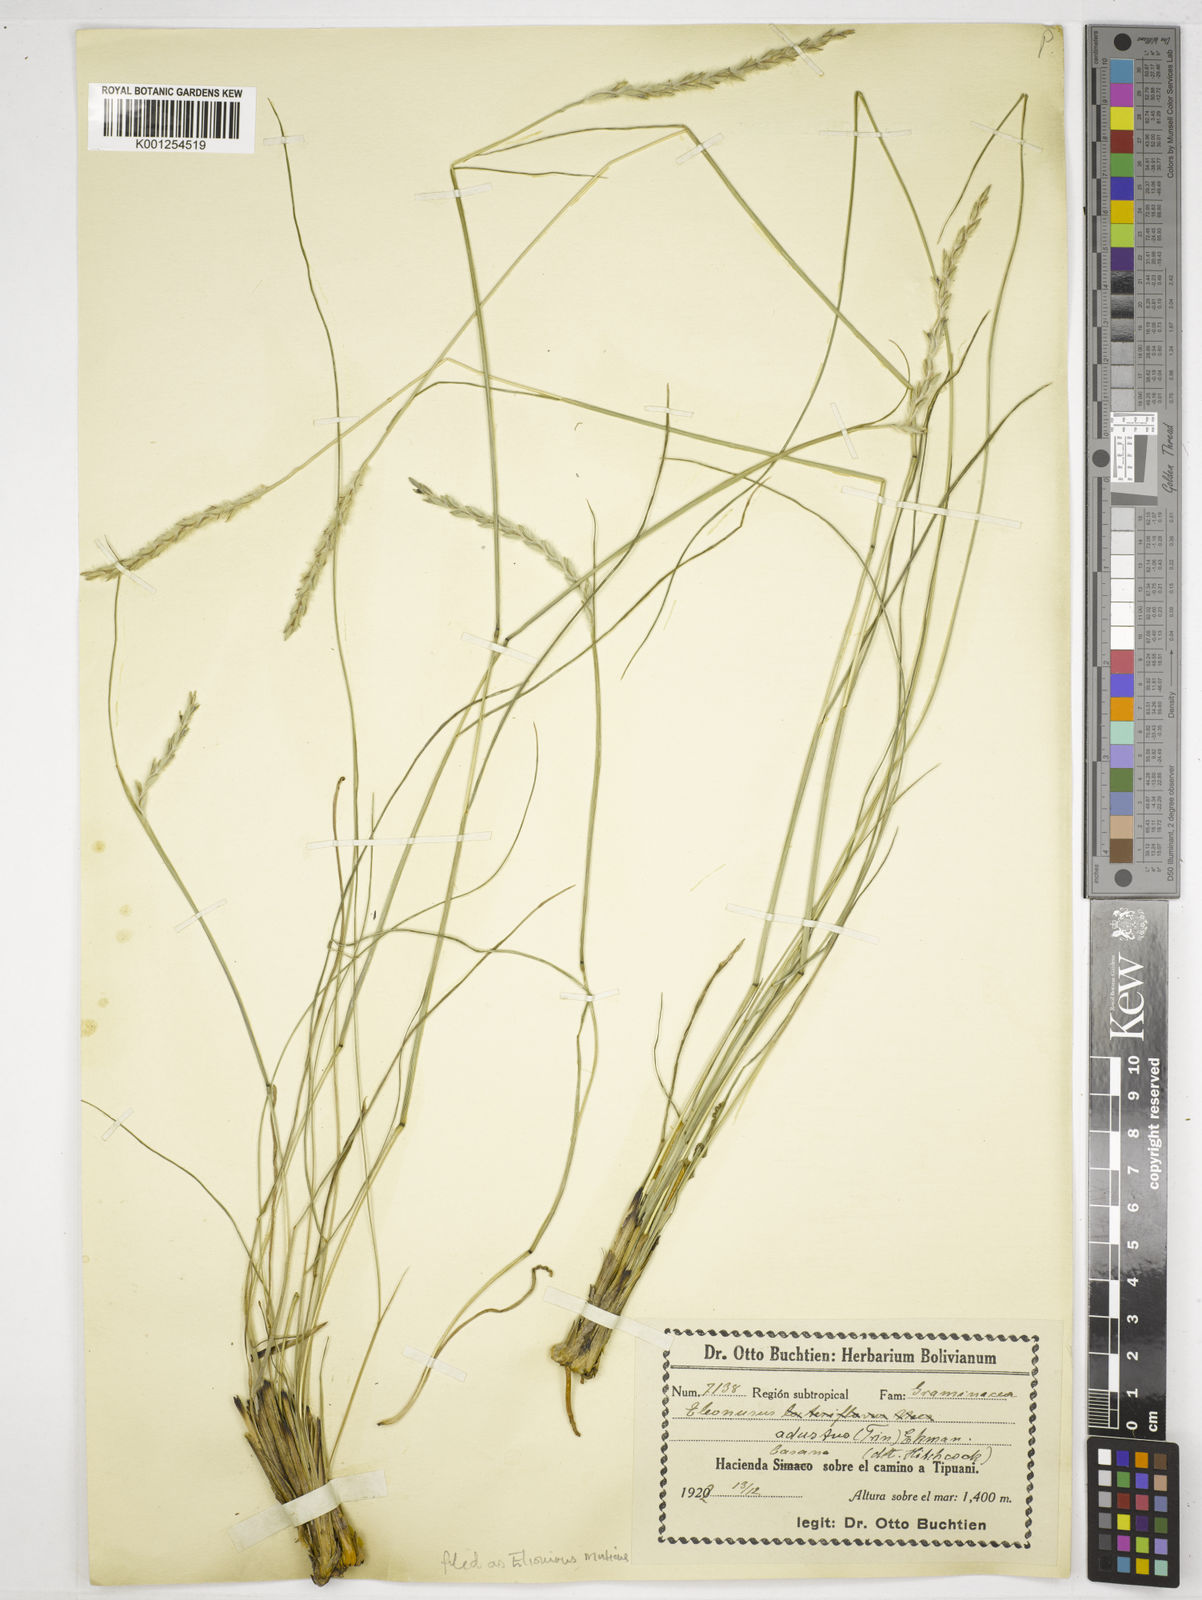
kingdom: Plantae
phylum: Tracheophyta
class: Liliopsida
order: Poales
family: Poaceae
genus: Elionurus
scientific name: Elionurus muticus
